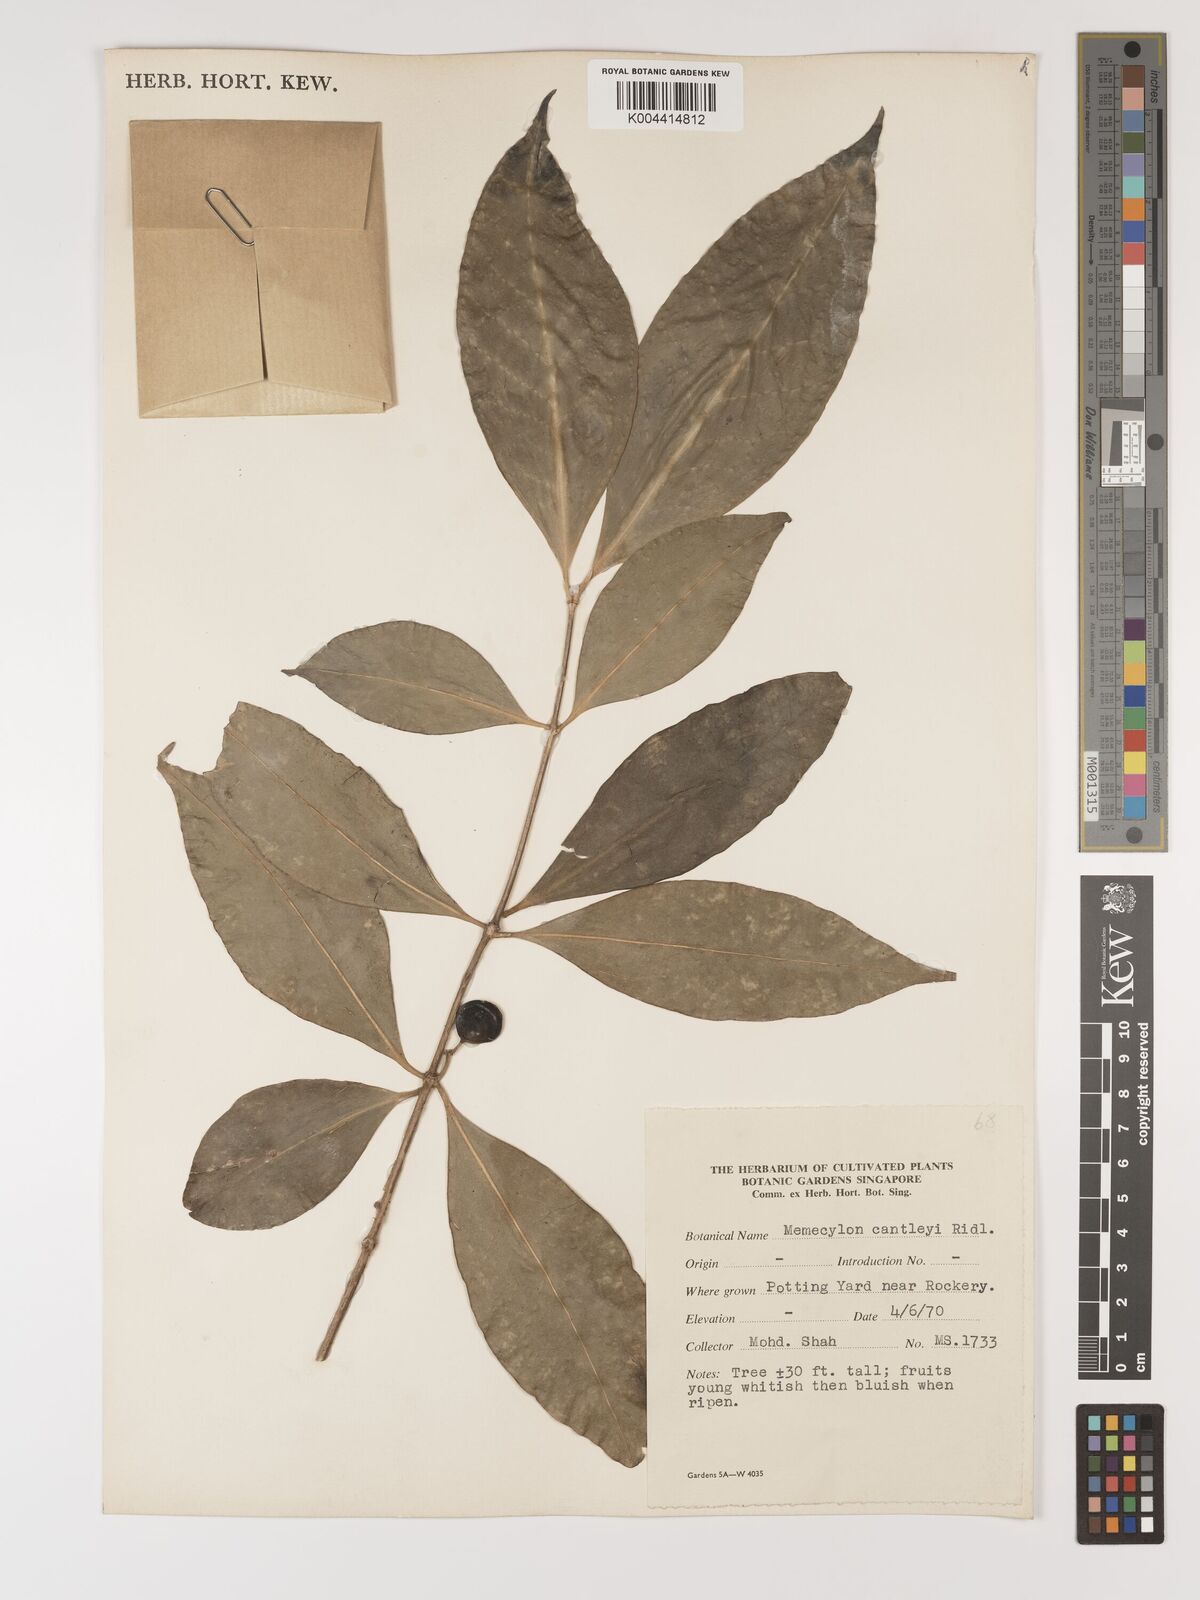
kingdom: Plantae
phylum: Tracheophyta
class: Magnoliopsida
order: Myrtales
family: Melastomataceae
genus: Memecylon
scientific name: Memecylon cantleyi
